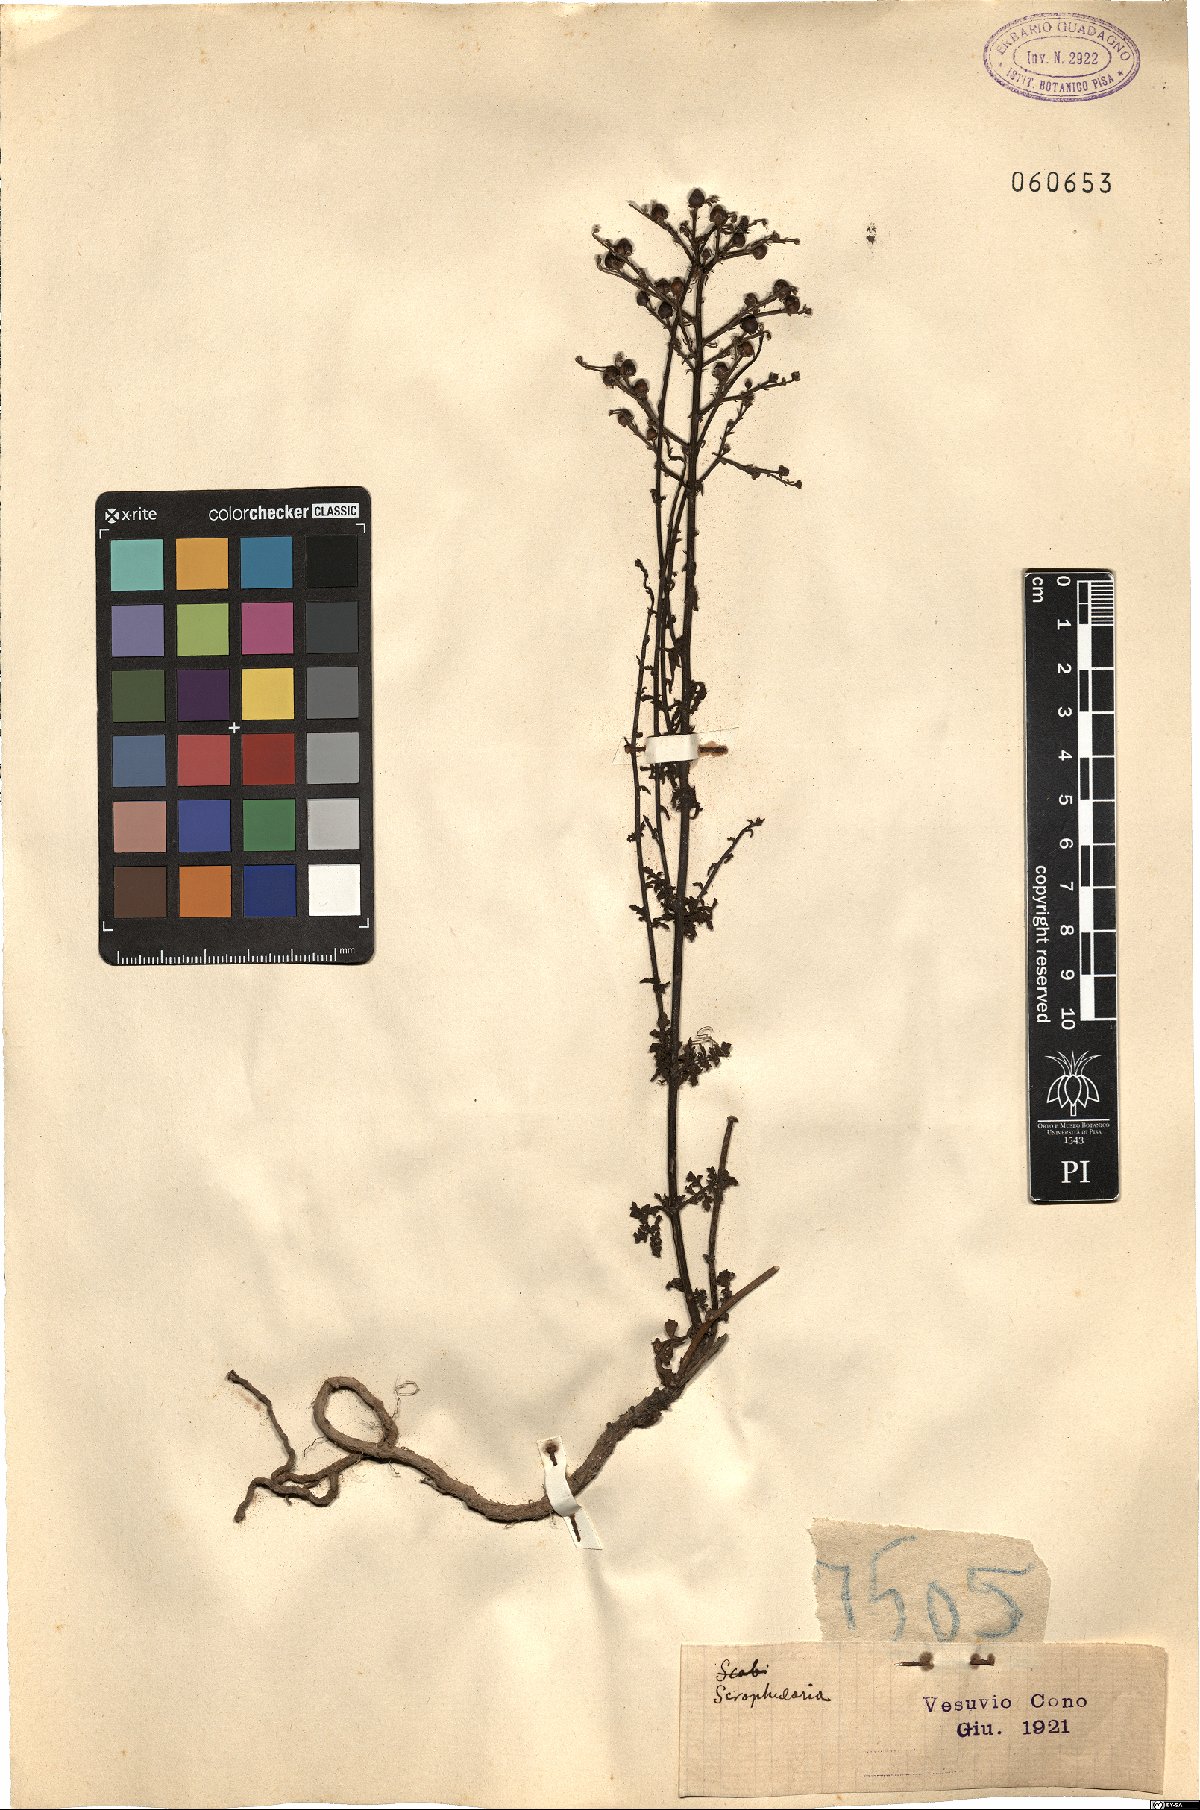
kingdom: Plantae
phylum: Tracheophyta
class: Magnoliopsida
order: Lamiales
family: Scrophulariaceae
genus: Scrophularia
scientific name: Scrophularia
